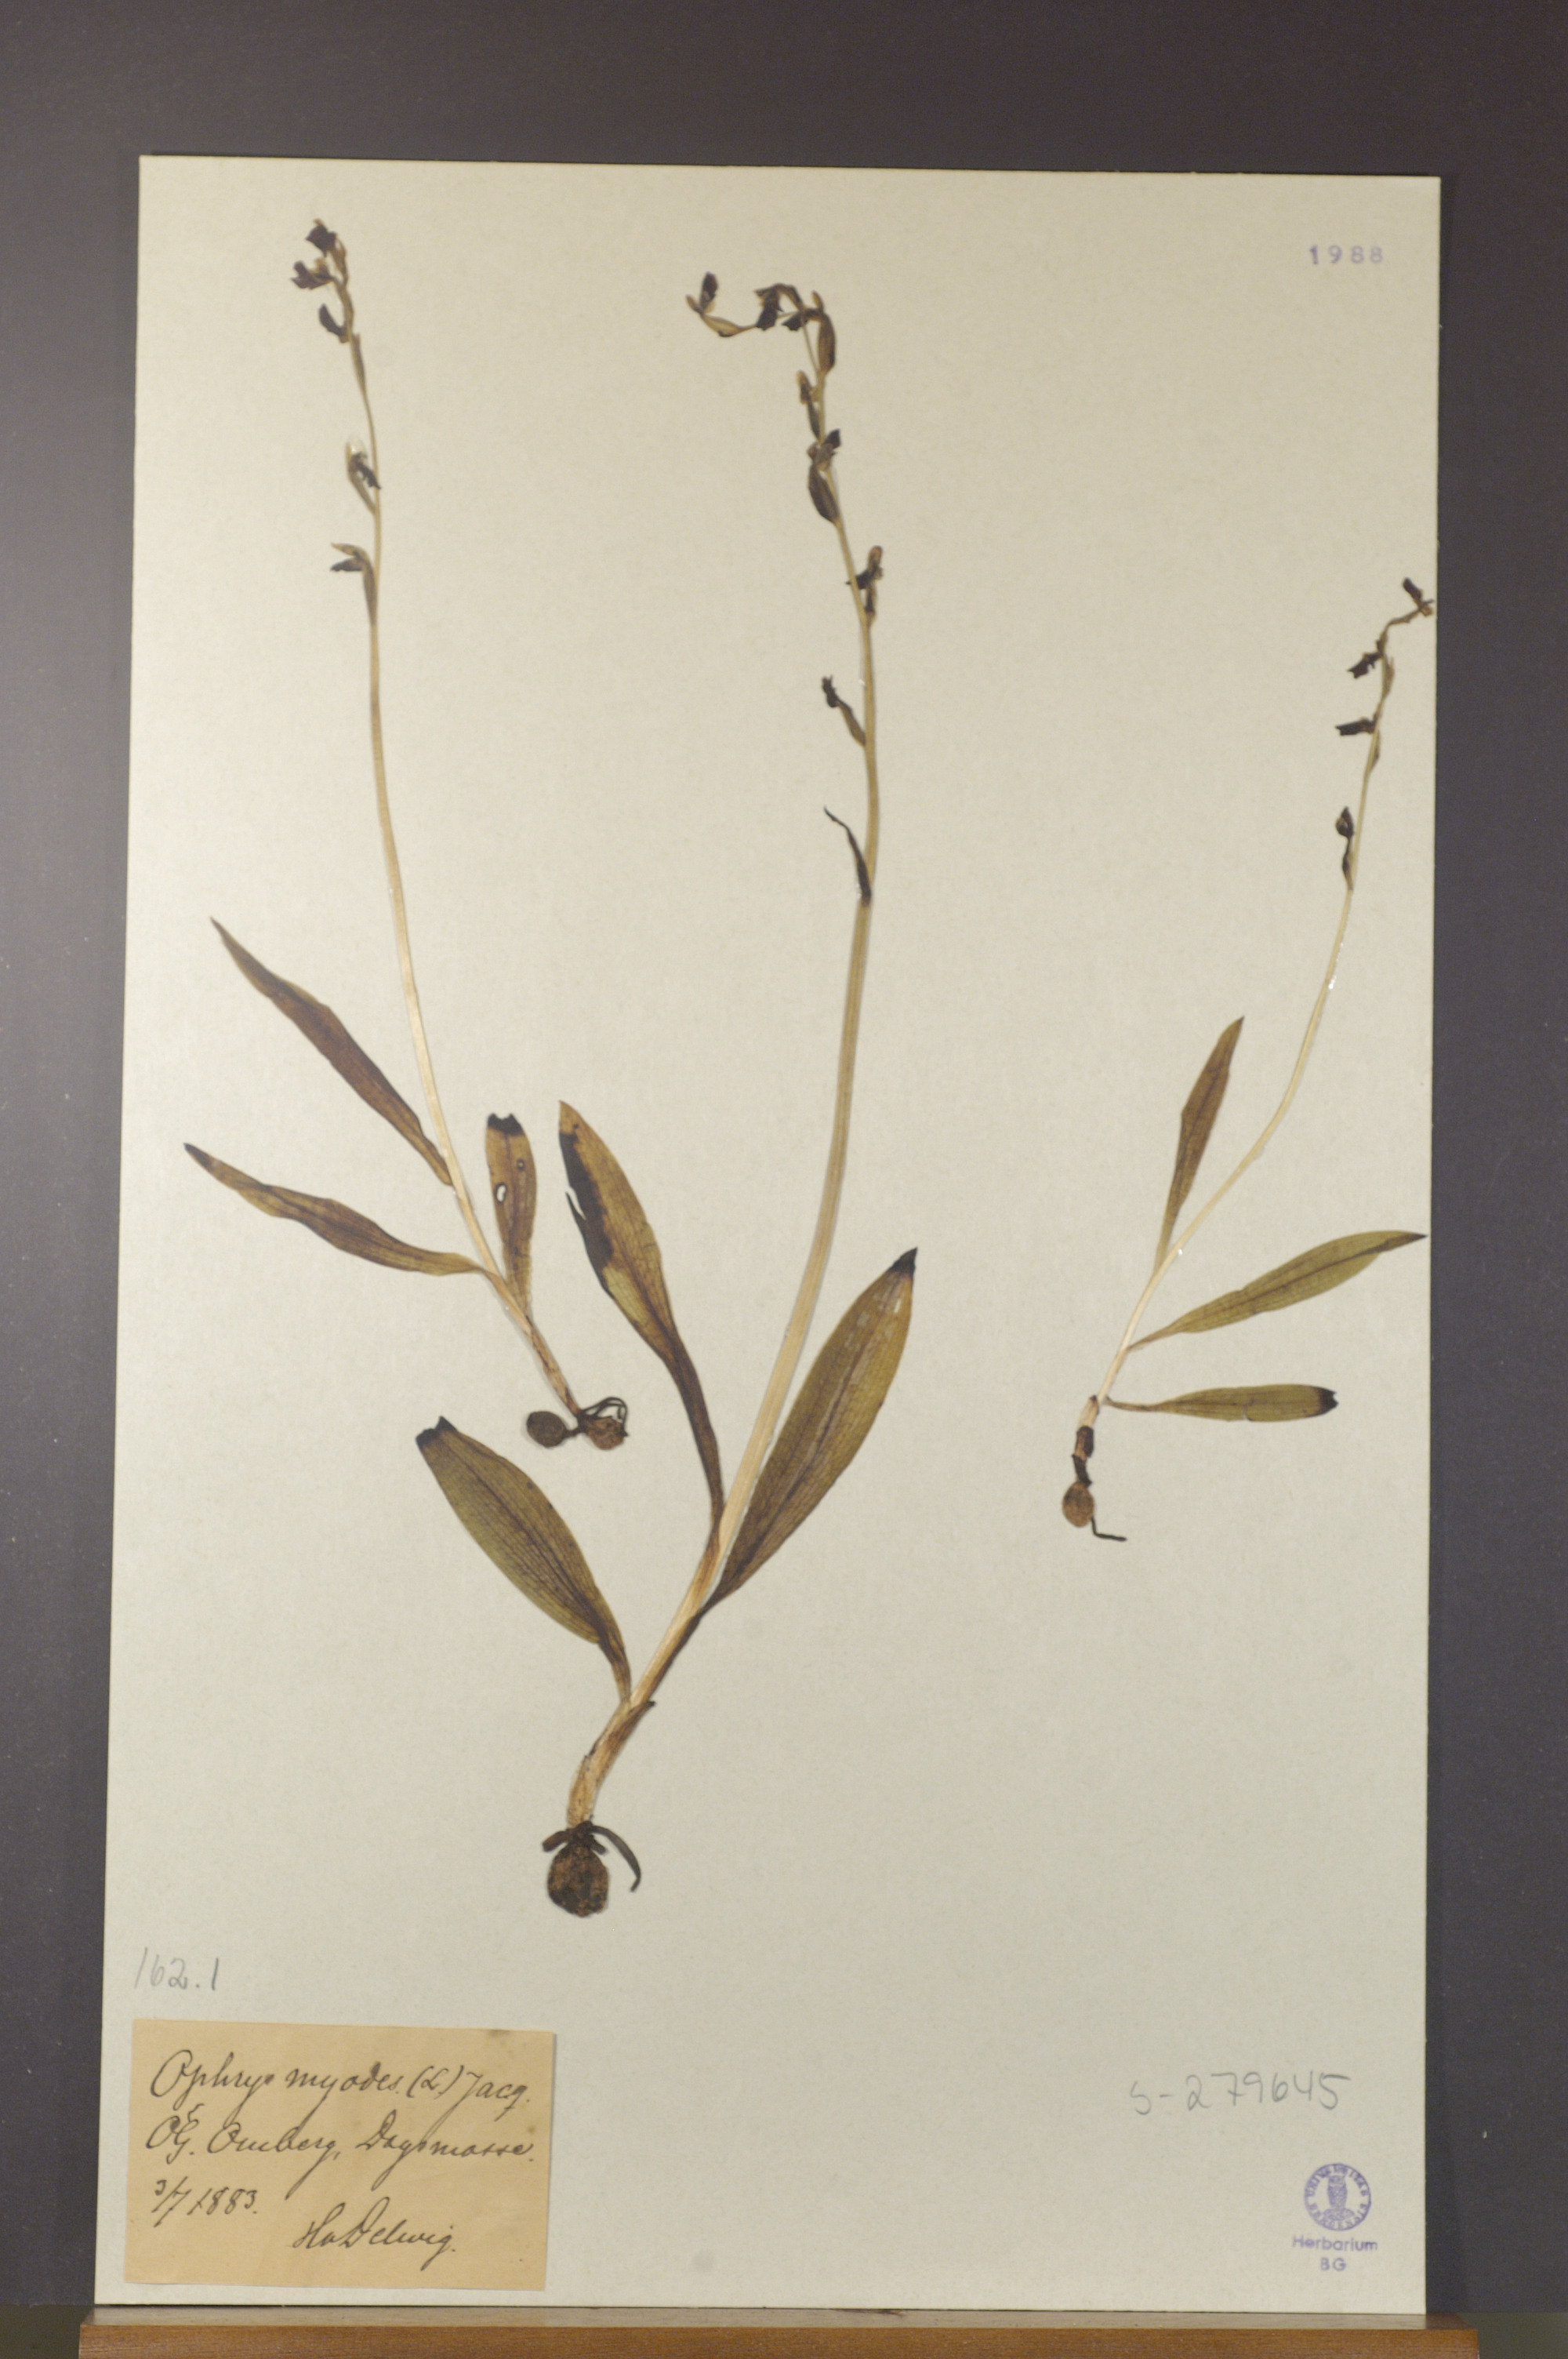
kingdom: Plantae
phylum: Tracheophyta
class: Liliopsida
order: Asparagales
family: Orchidaceae
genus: Ophrys
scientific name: Ophrys insectifera
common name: Fly orchid
